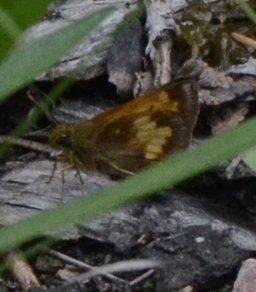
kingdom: Animalia
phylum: Arthropoda
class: Insecta
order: Lepidoptera
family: Hesperiidae
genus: Lon
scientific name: Lon hobomok
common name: Hobomok Skipper
